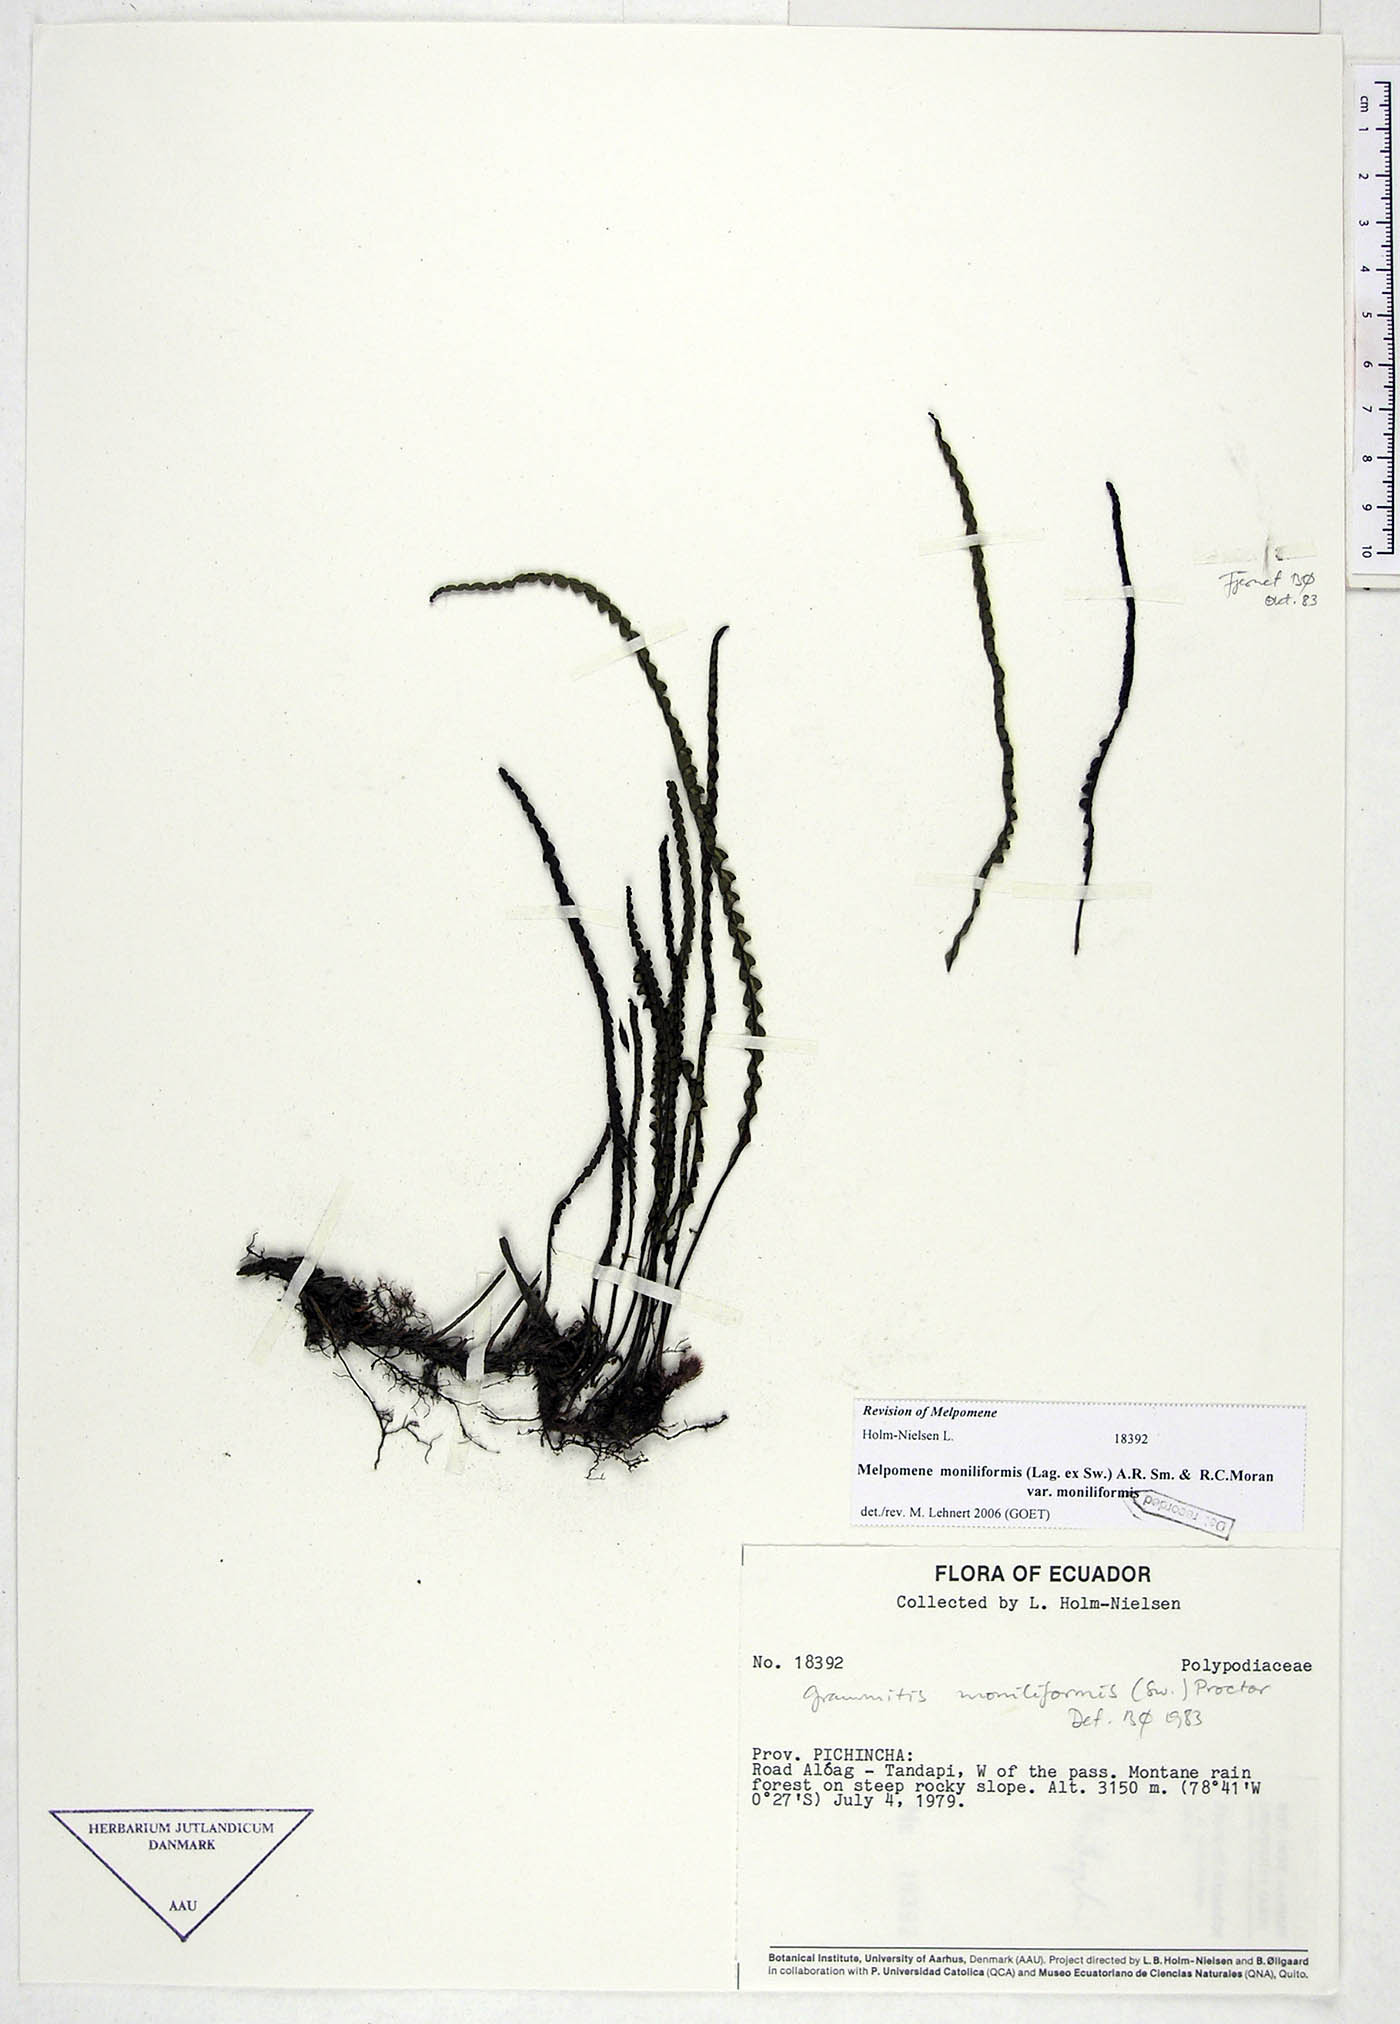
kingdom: Plantae
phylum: Tracheophyta
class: Polypodiopsida
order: Polypodiales
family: Polypodiaceae
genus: Melpomene
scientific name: Melpomene moniliformis
